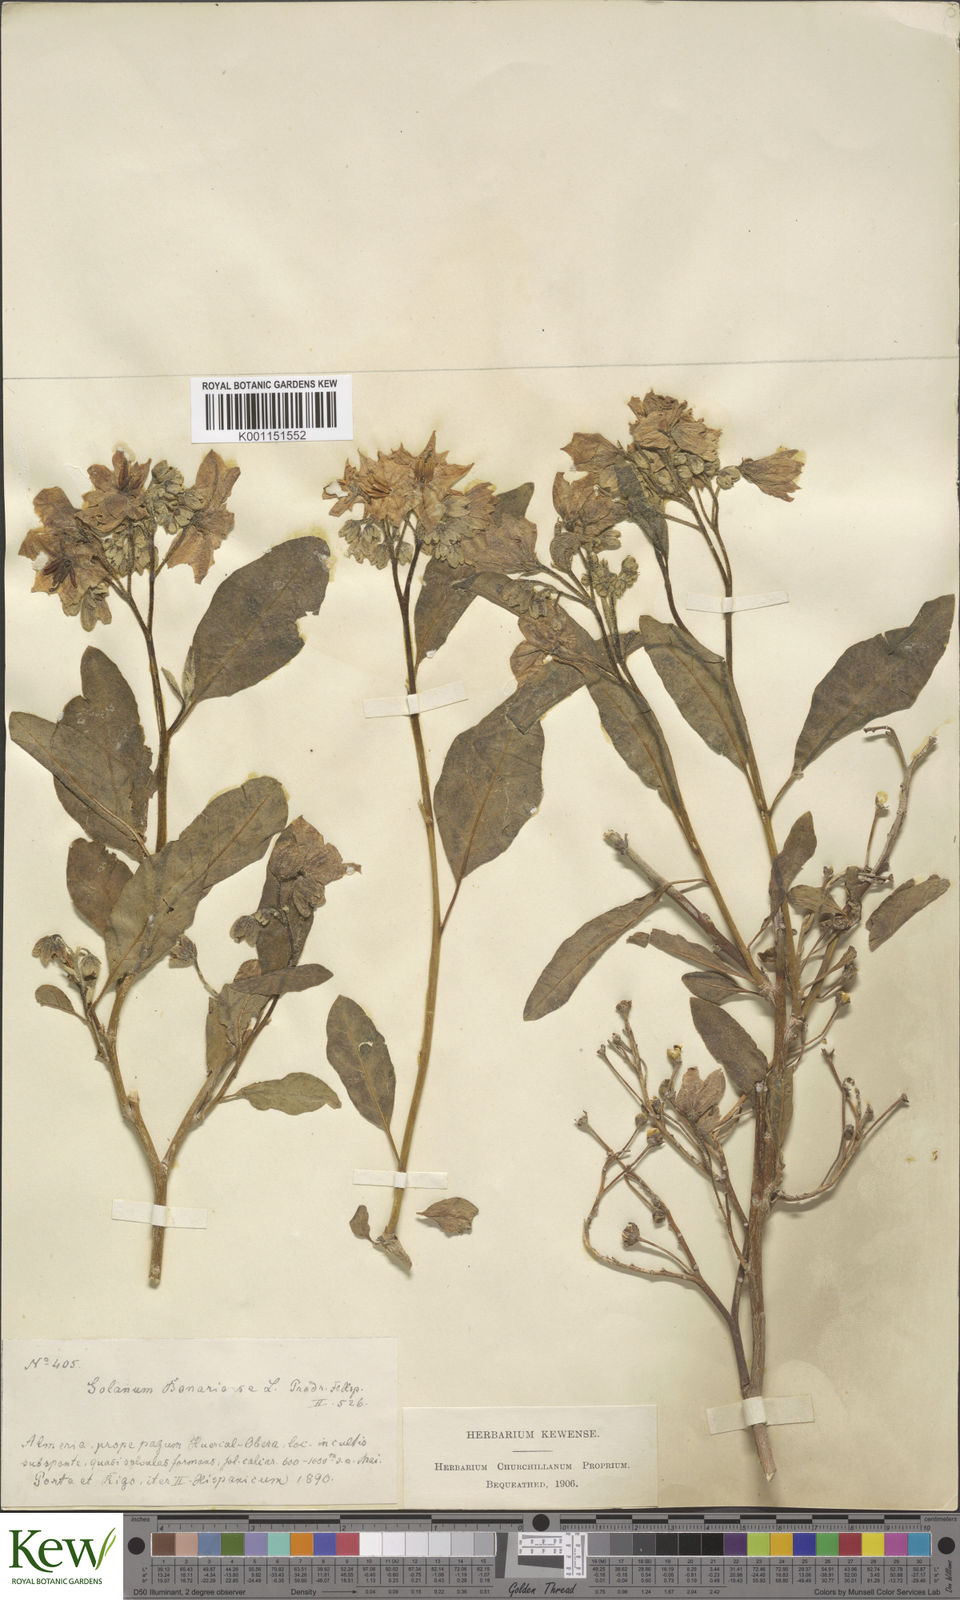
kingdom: Plantae
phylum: Tracheophyta
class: Magnoliopsida
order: Solanales
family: Solanaceae
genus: Solanum
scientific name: Solanum bonariense
